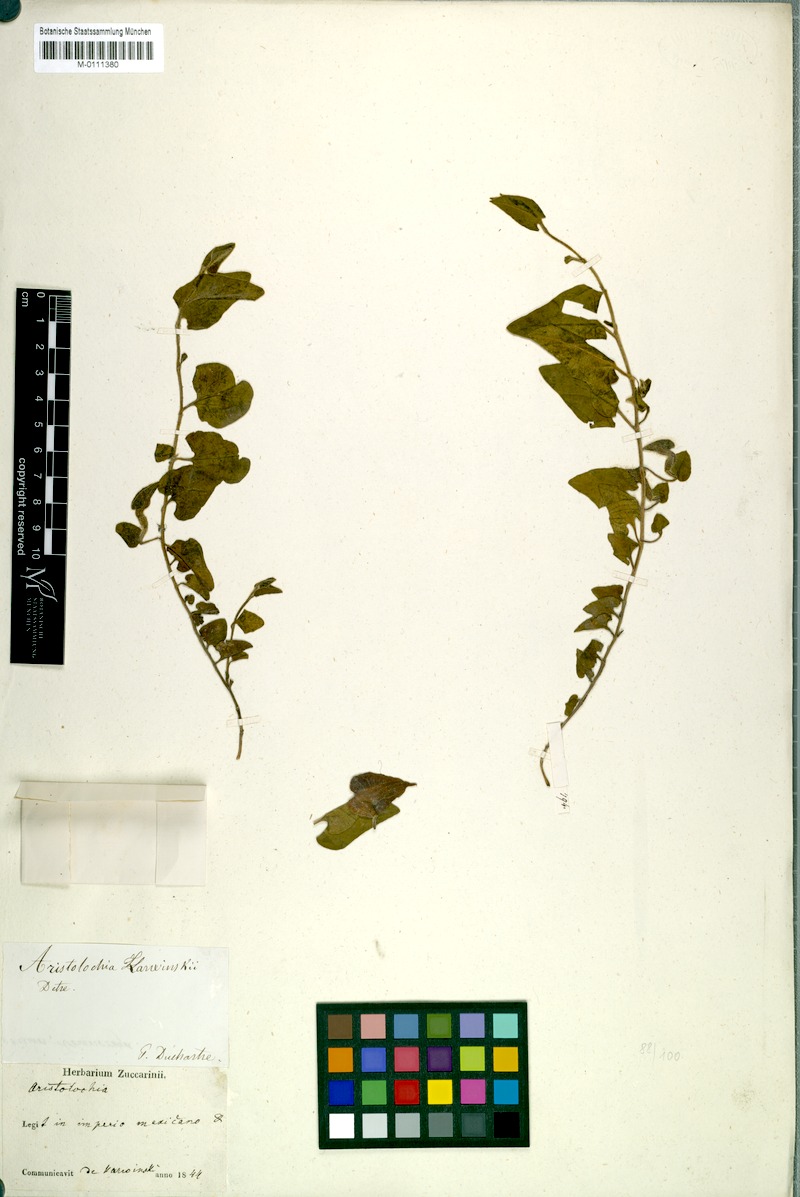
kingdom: Plantae
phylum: Tracheophyta
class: Magnoliopsida
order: Piperales
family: Aristolochiaceae
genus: Aristolochia
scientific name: Aristolochia karwinskii
